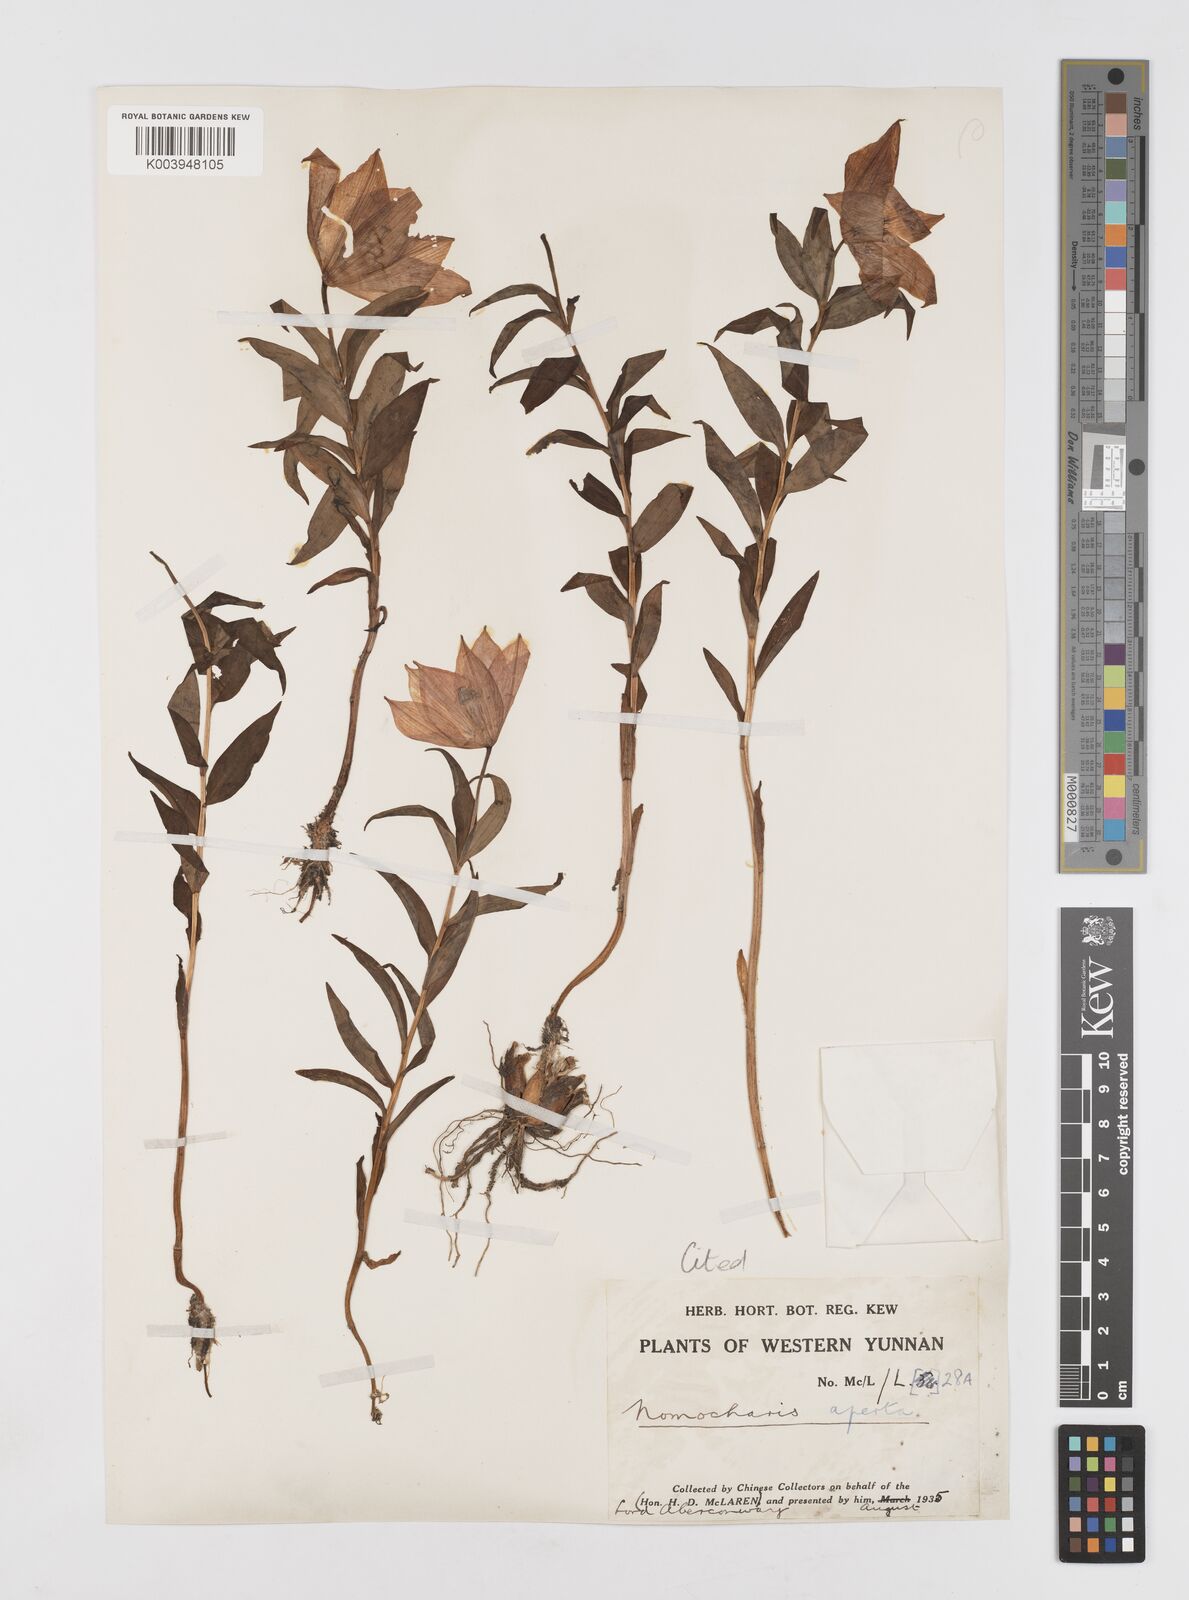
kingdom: Plantae
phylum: Tracheophyta
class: Liliopsida
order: Liliales
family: Liliaceae
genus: Lilium
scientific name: Lilium apertum
